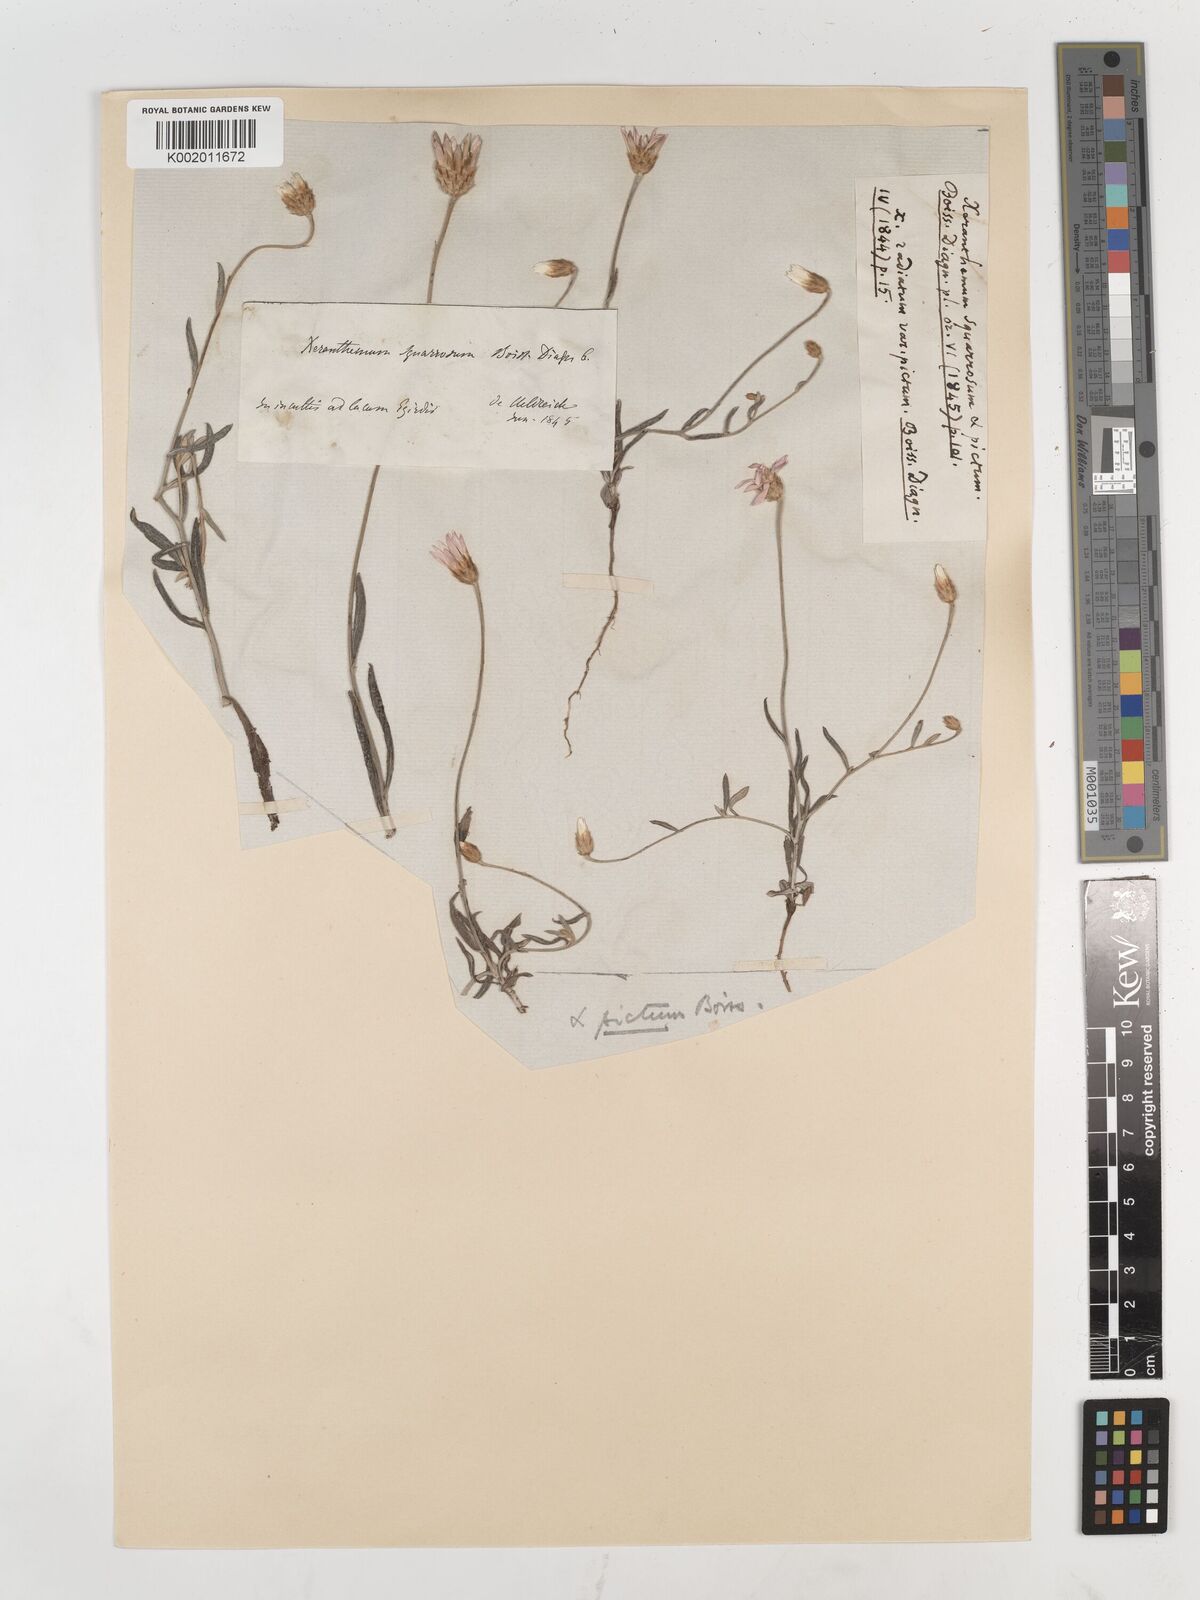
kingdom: Plantae
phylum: Tracheophyta
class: Magnoliopsida
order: Asterales
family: Asteraceae
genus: Xeranthemum
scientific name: Xeranthemum squarrosum
